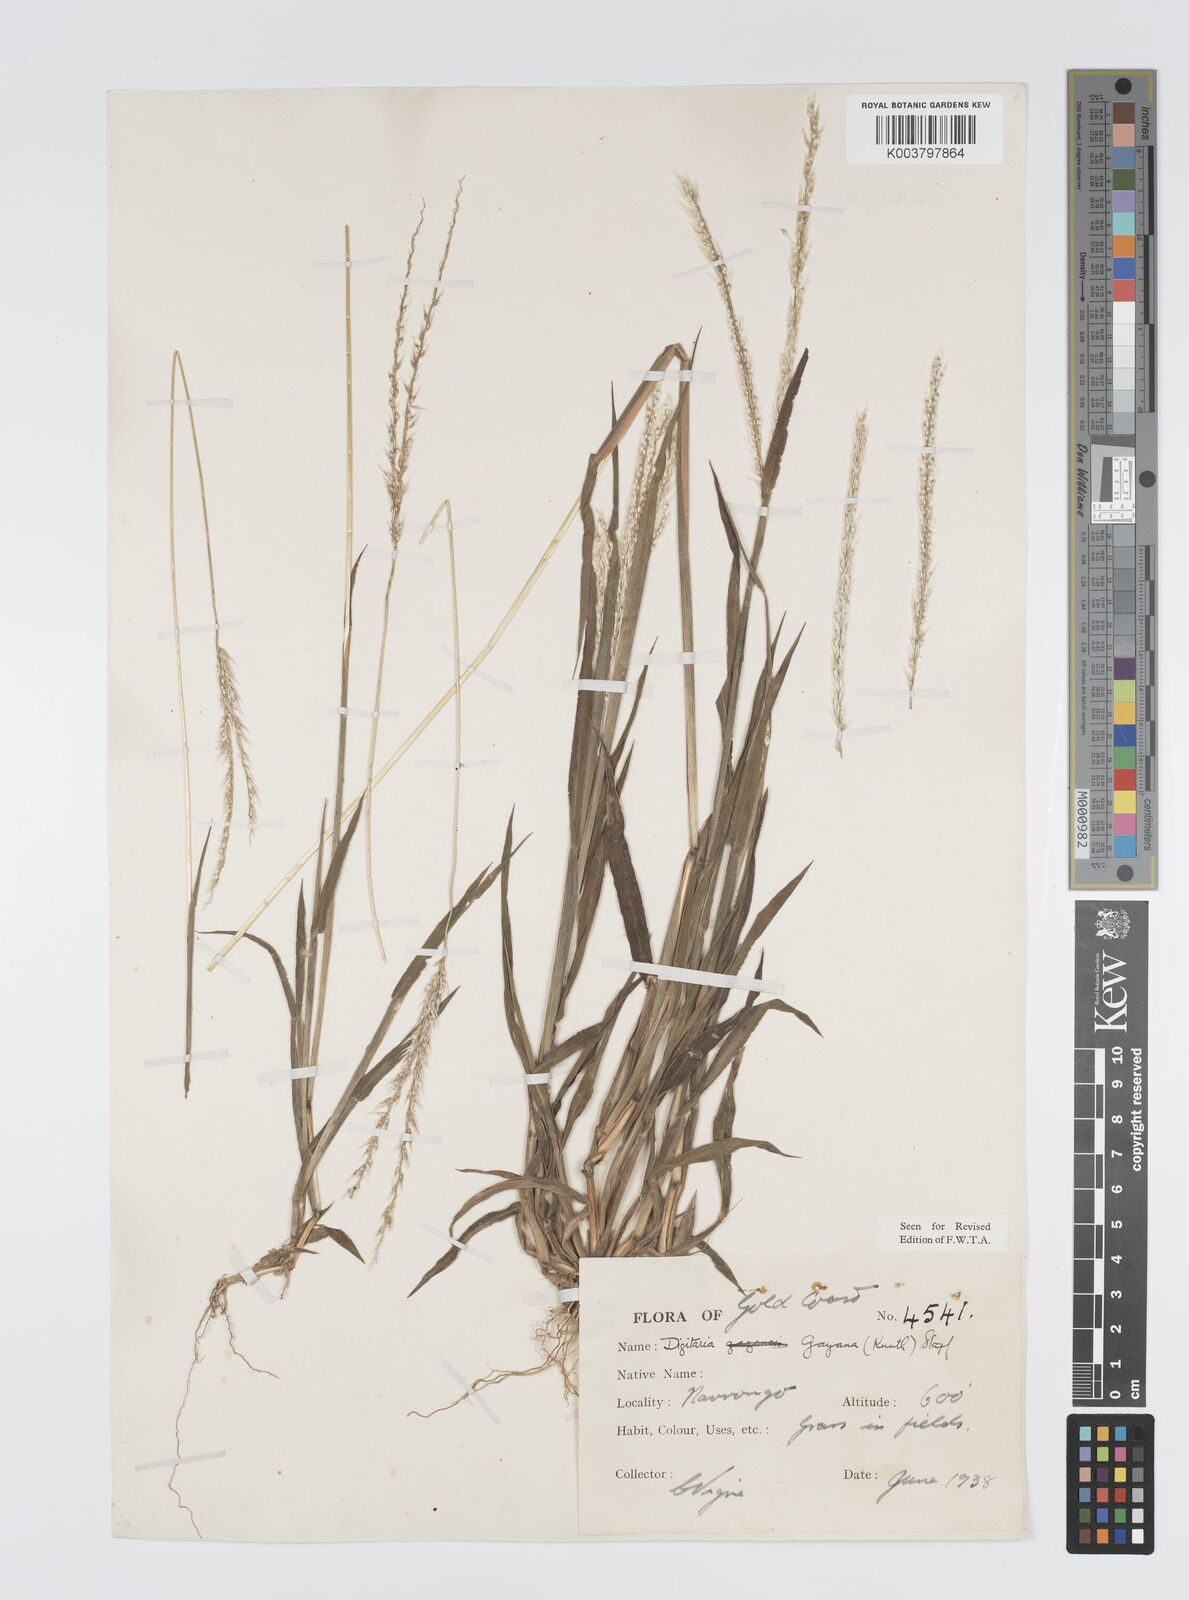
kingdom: Plantae
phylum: Tracheophyta
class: Liliopsida
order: Poales
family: Poaceae
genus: Digitaria
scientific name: Digitaria gayana
